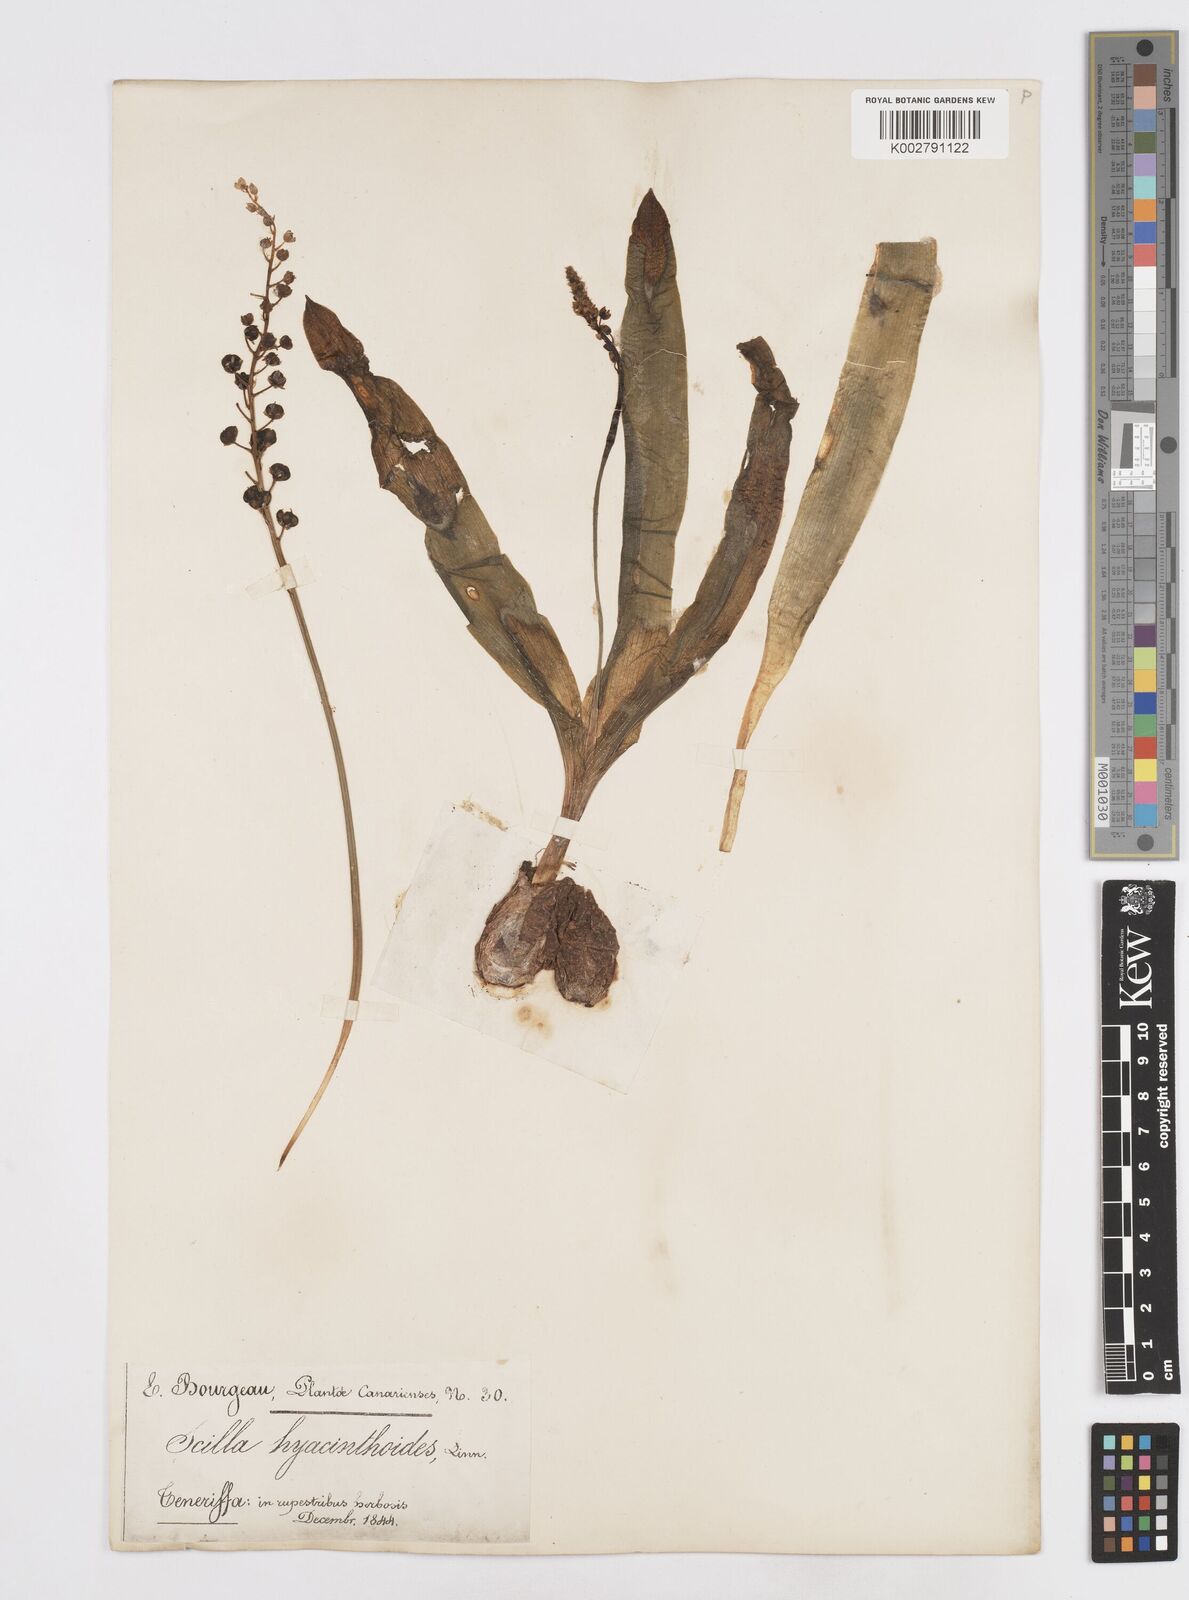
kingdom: Plantae
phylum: Tracheophyta
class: Liliopsida
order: Asparagales
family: Asparagaceae
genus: Scilla
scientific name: Scilla haemorrhoidalis
